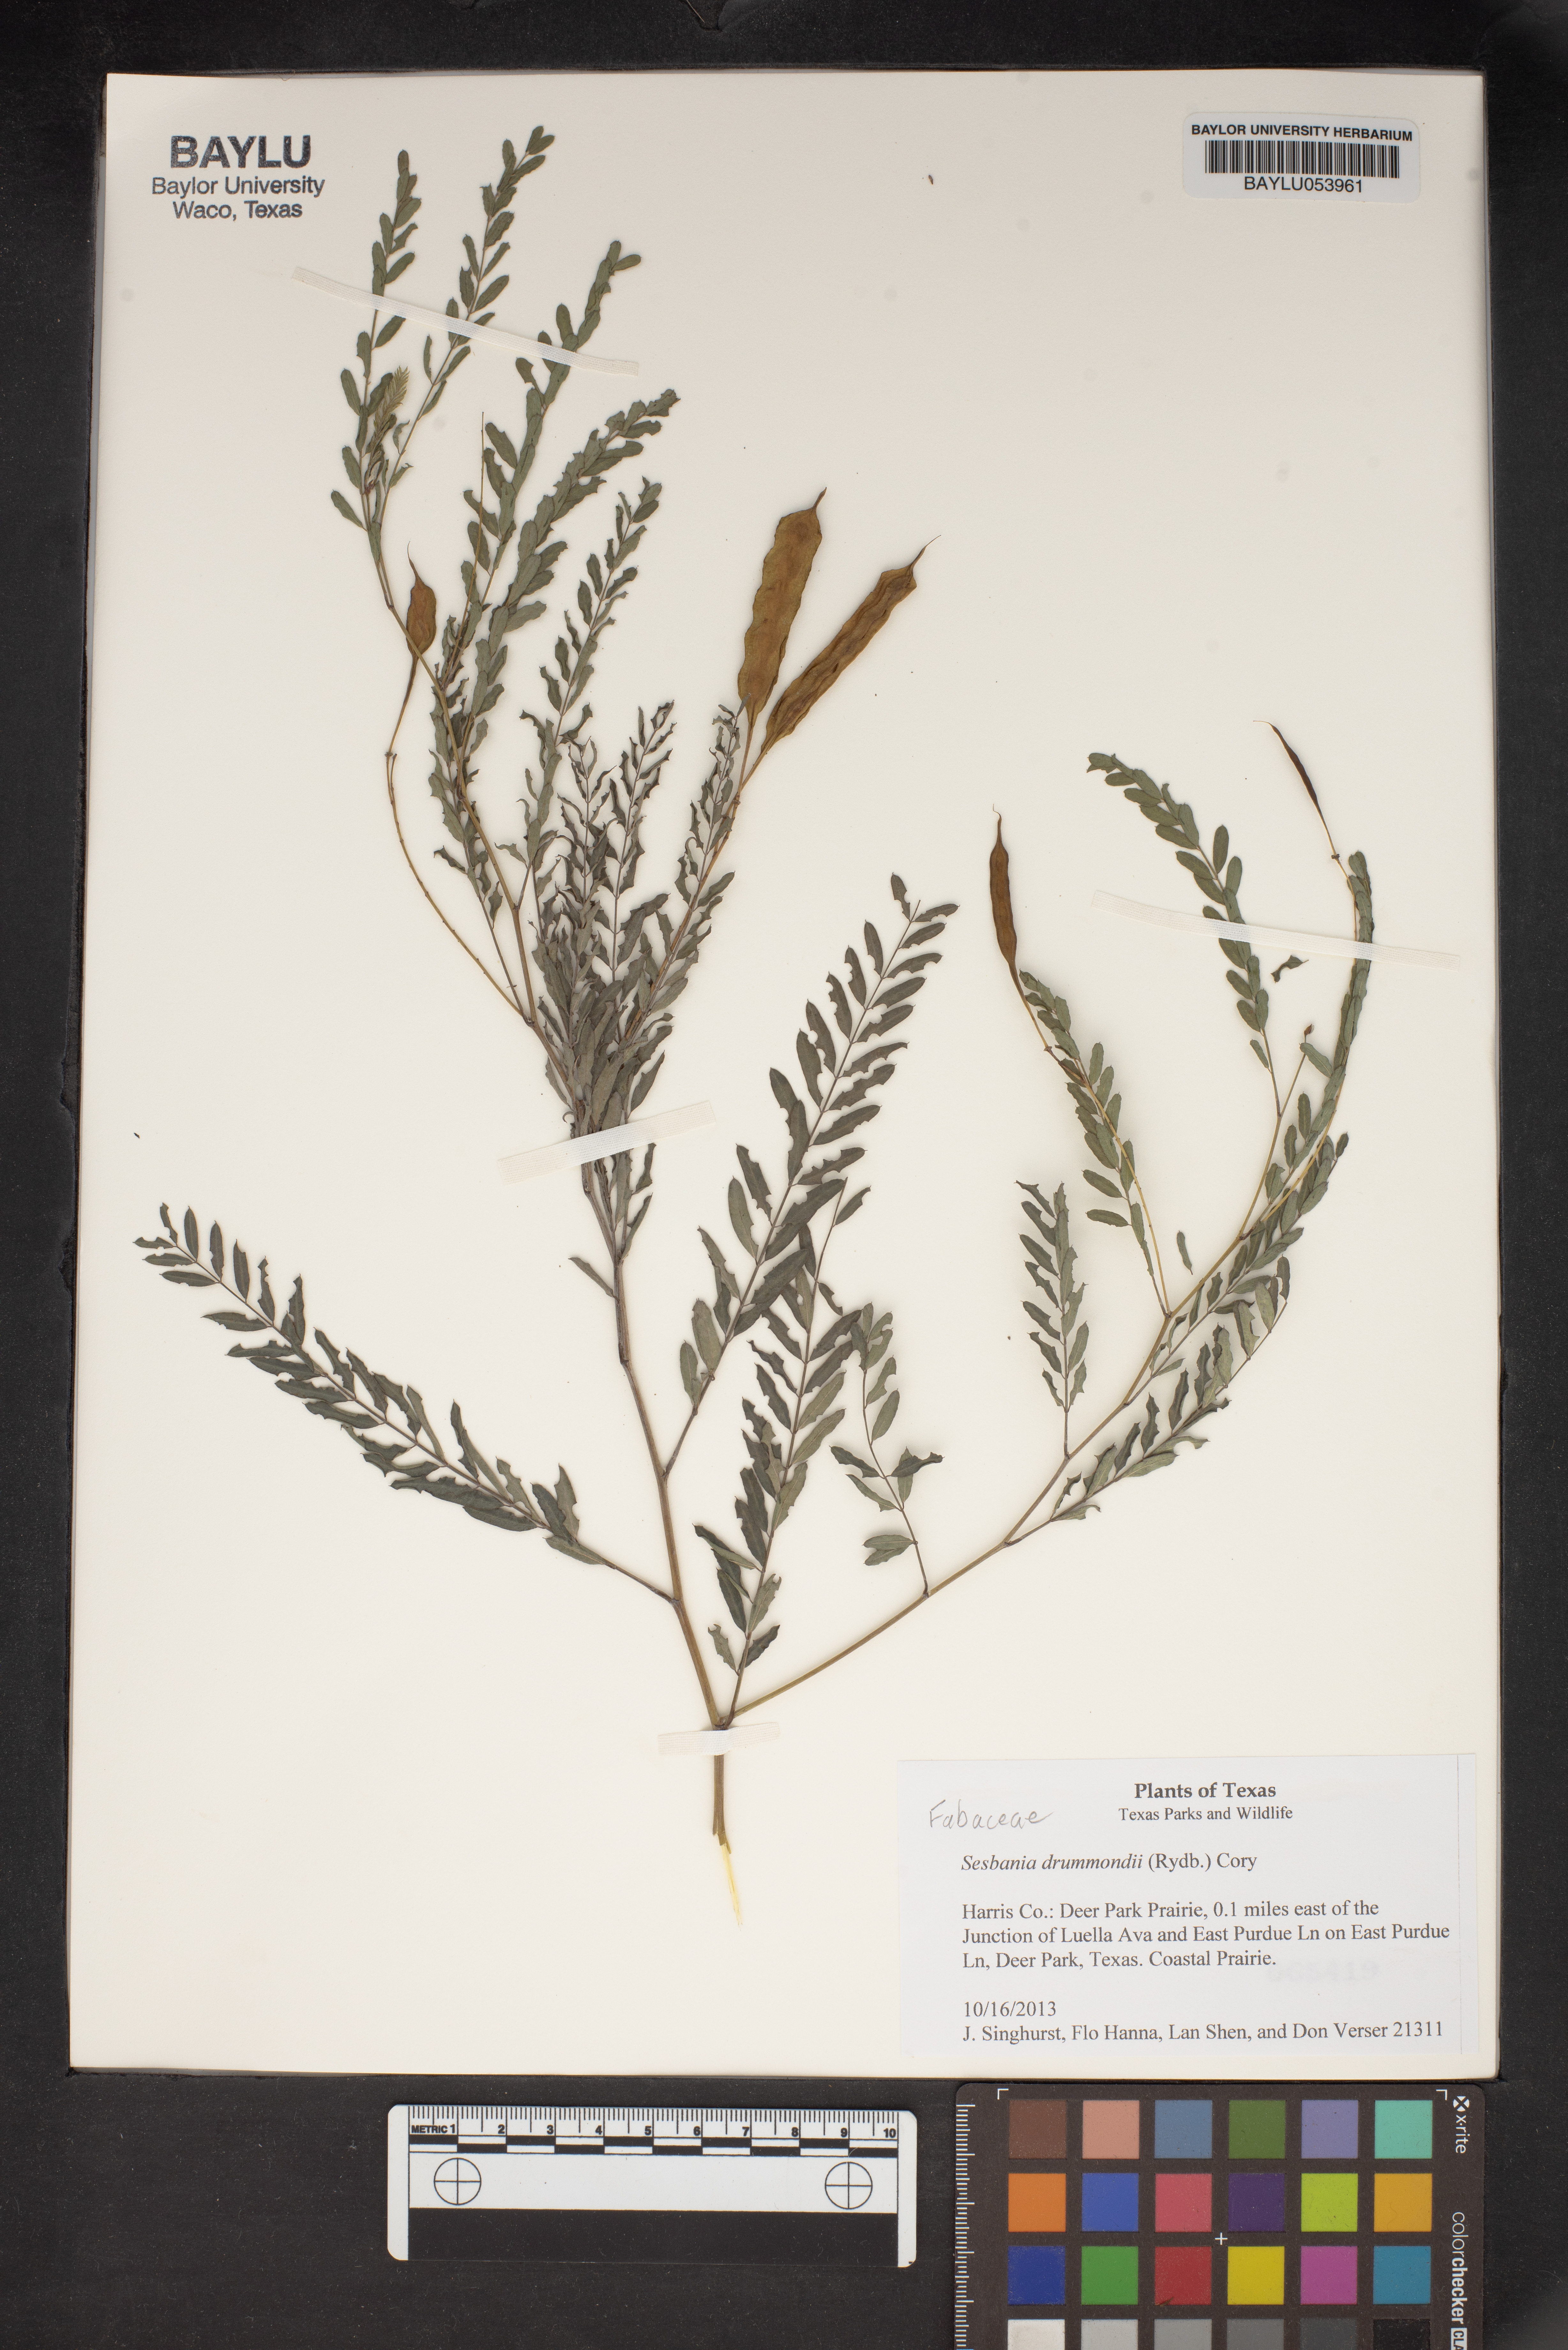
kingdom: Plantae
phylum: Tracheophyta
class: Magnoliopsida
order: Fabales
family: Fabaceae
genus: Sesbania
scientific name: Sesbania drummondii
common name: Poison-bean
